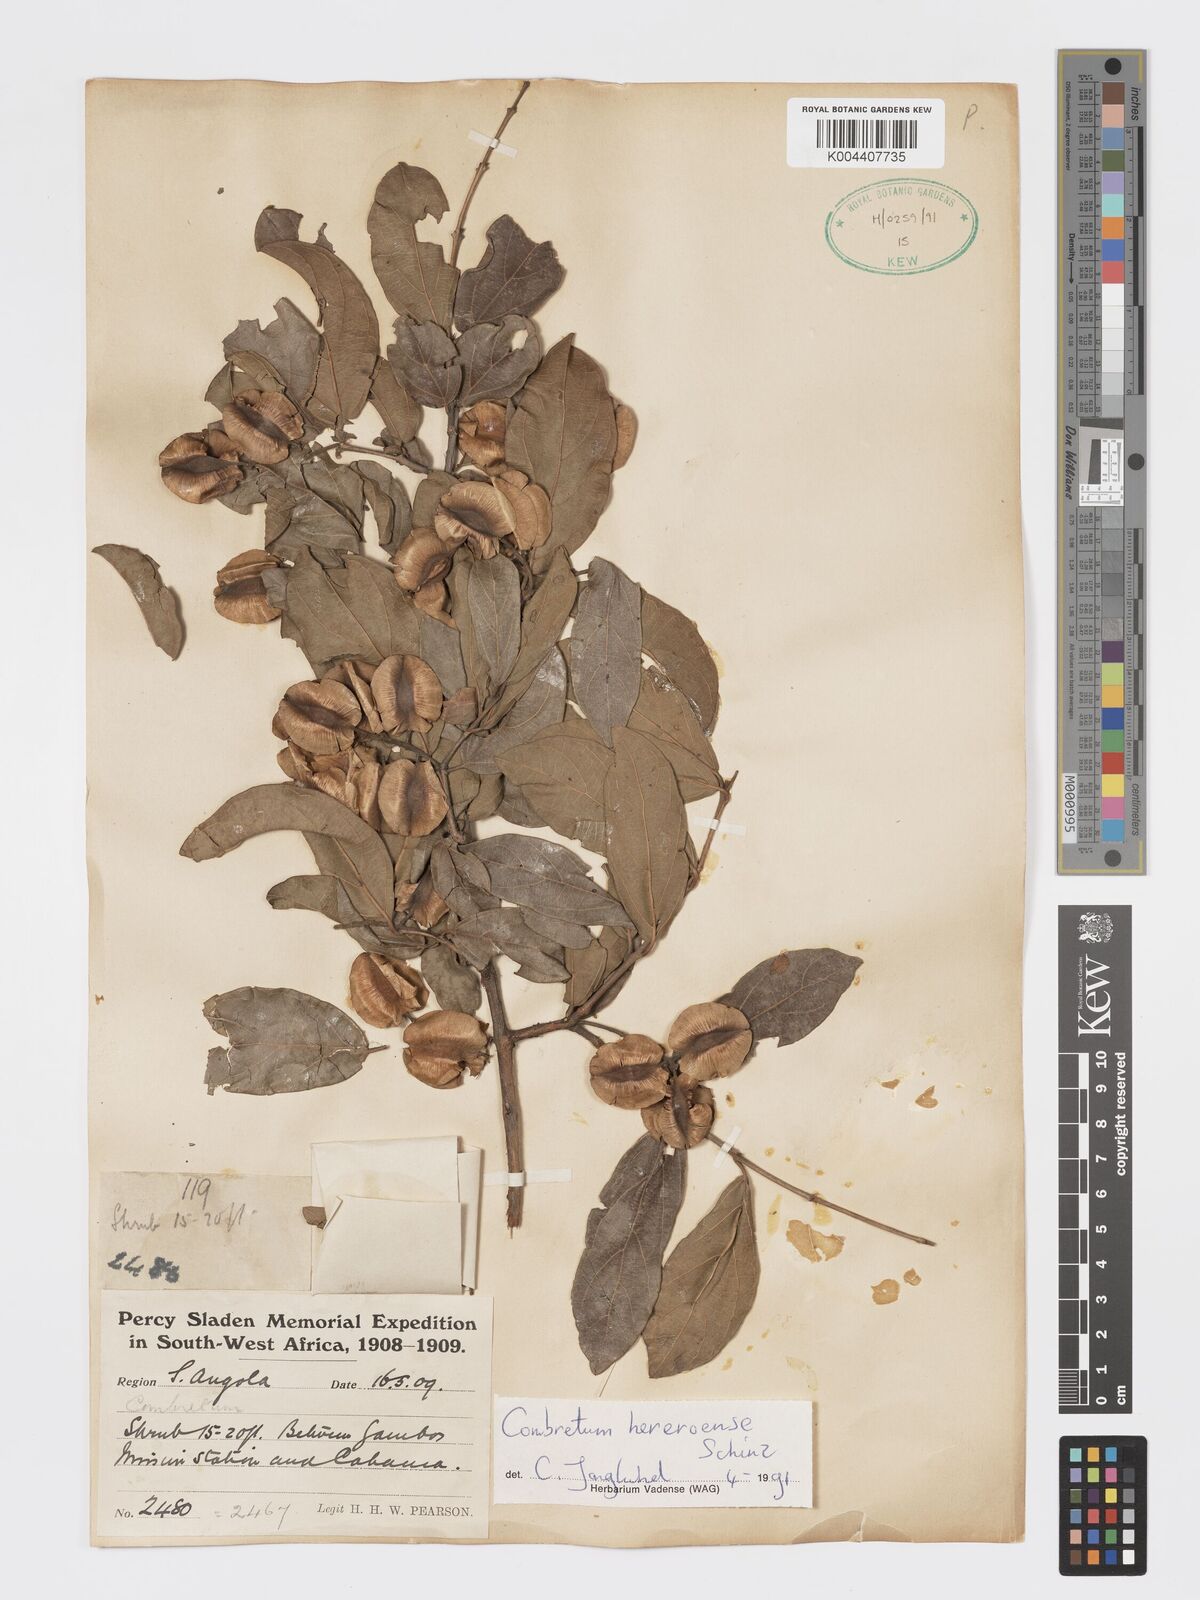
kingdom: Plantae
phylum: Tracheophyta
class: Magnoliopsida
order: Myrtales
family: Combretaceae
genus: Combretum
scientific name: Combretum hereroense
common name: Russet bushwillow
